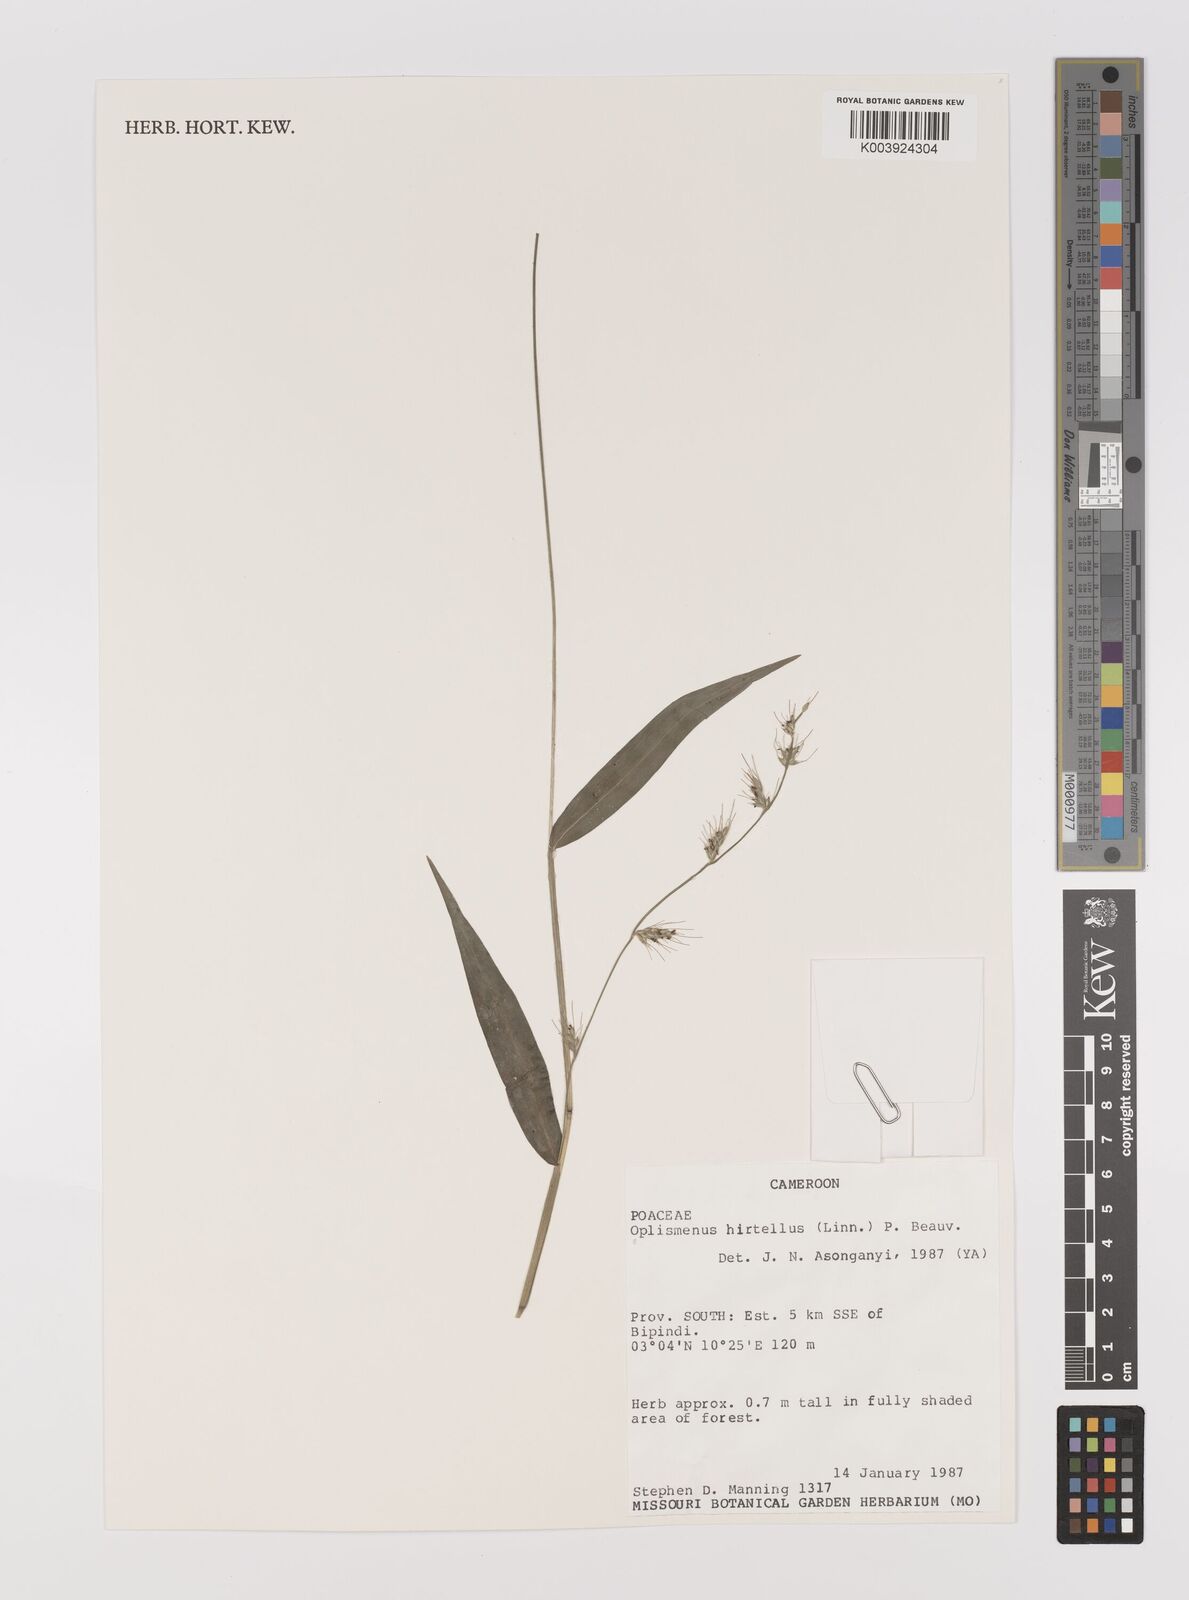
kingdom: Plantae
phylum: Tracheophyta
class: Liliopsida
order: Poales
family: Poaceae
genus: Oplismenus
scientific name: Oplismenus hirtellus
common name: Basketgrass
